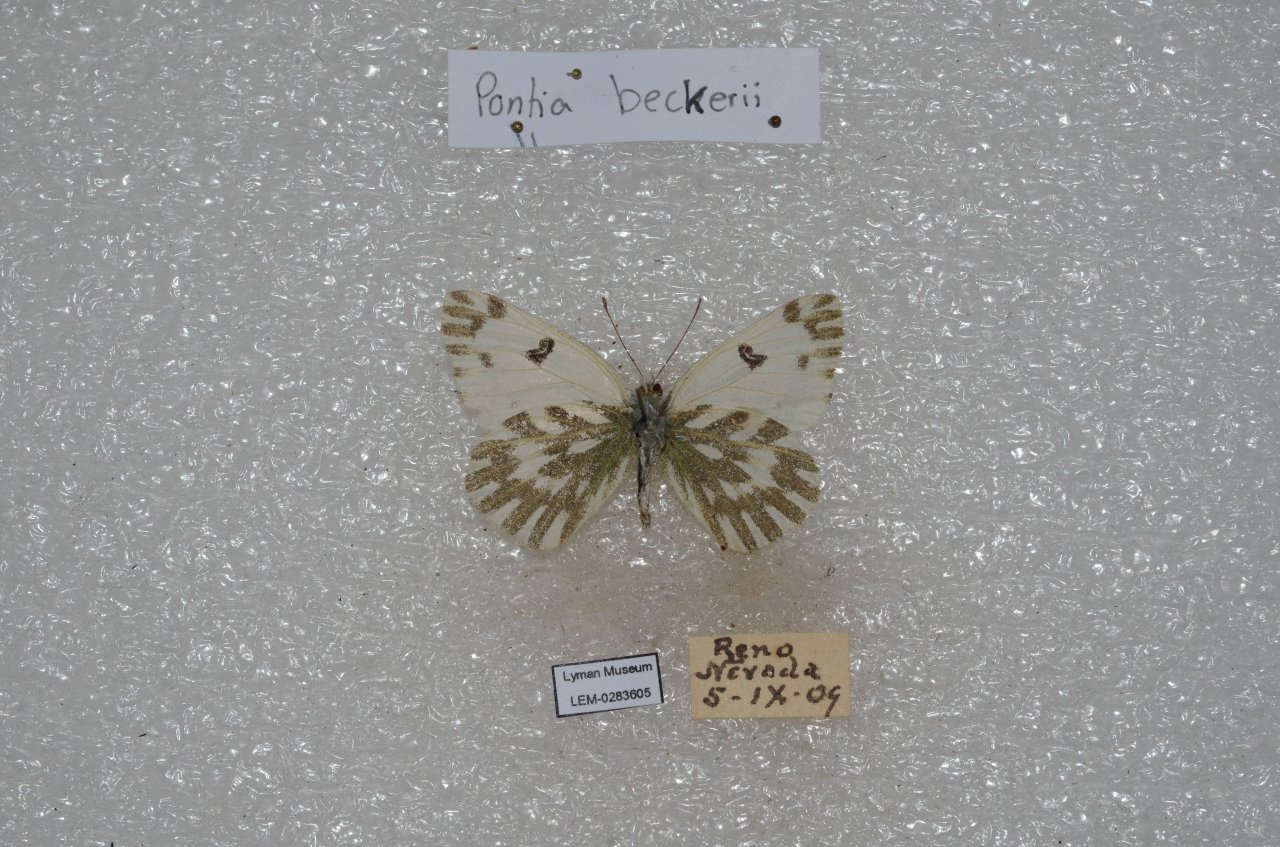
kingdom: Animalia
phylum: Arthropoda
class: Insecta
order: Lepidoptera
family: Pieridae
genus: Pontia
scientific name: Pontia beckerii
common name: Becker's White
